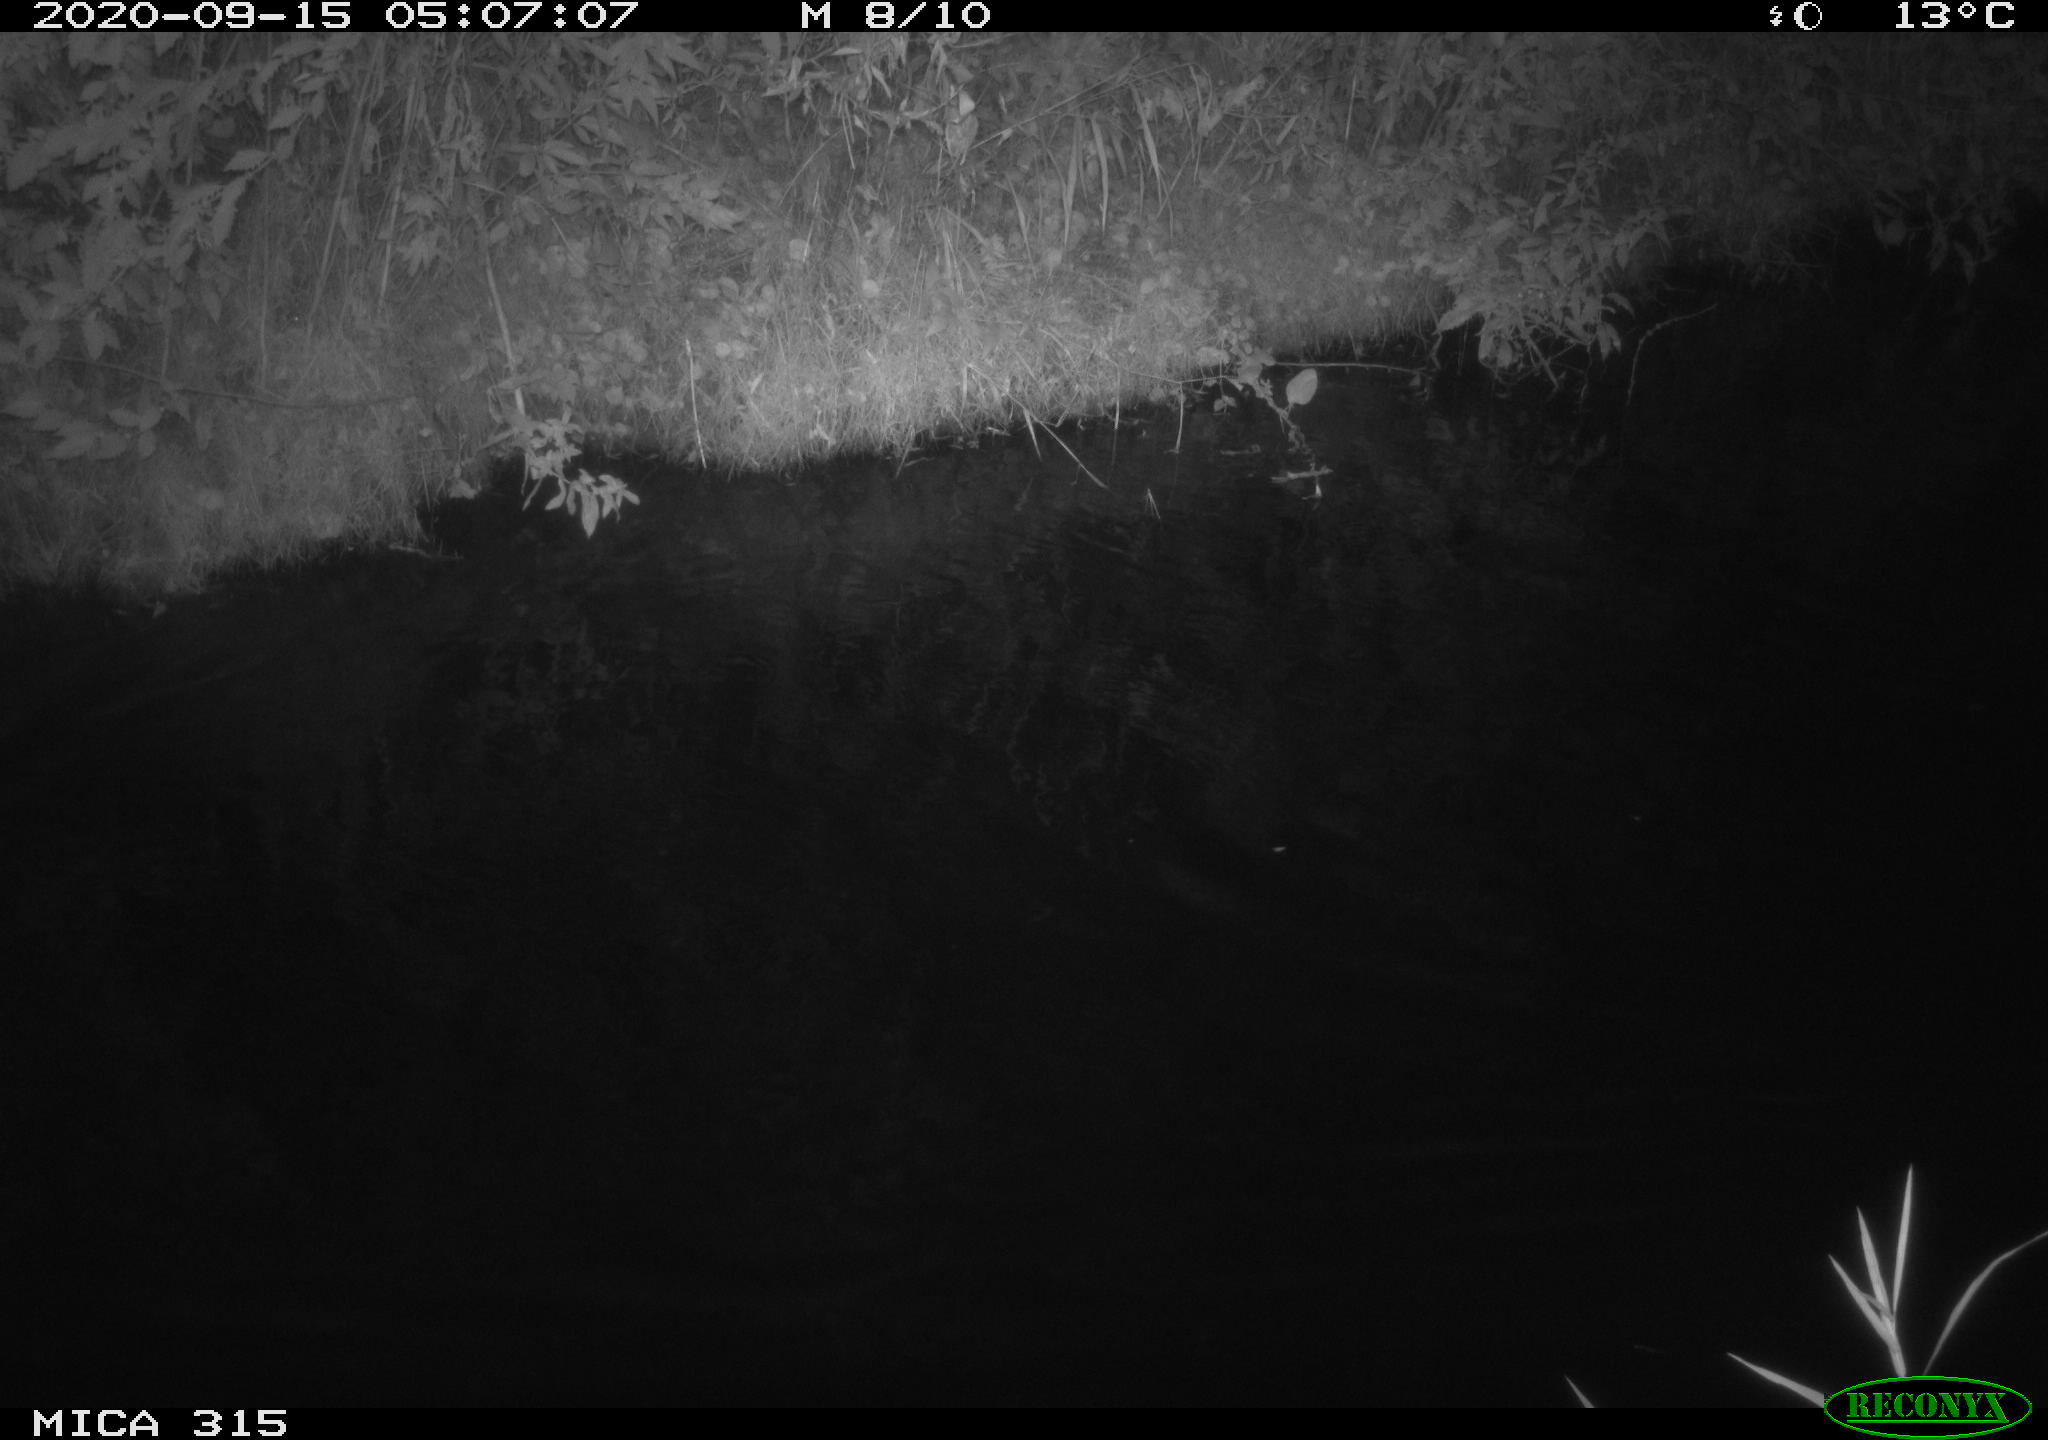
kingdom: Animalia
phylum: Chordata
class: Aves
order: Anseriformes
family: Anatidae
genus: Anas
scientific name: Anas platyrhynchos
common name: Mallard
